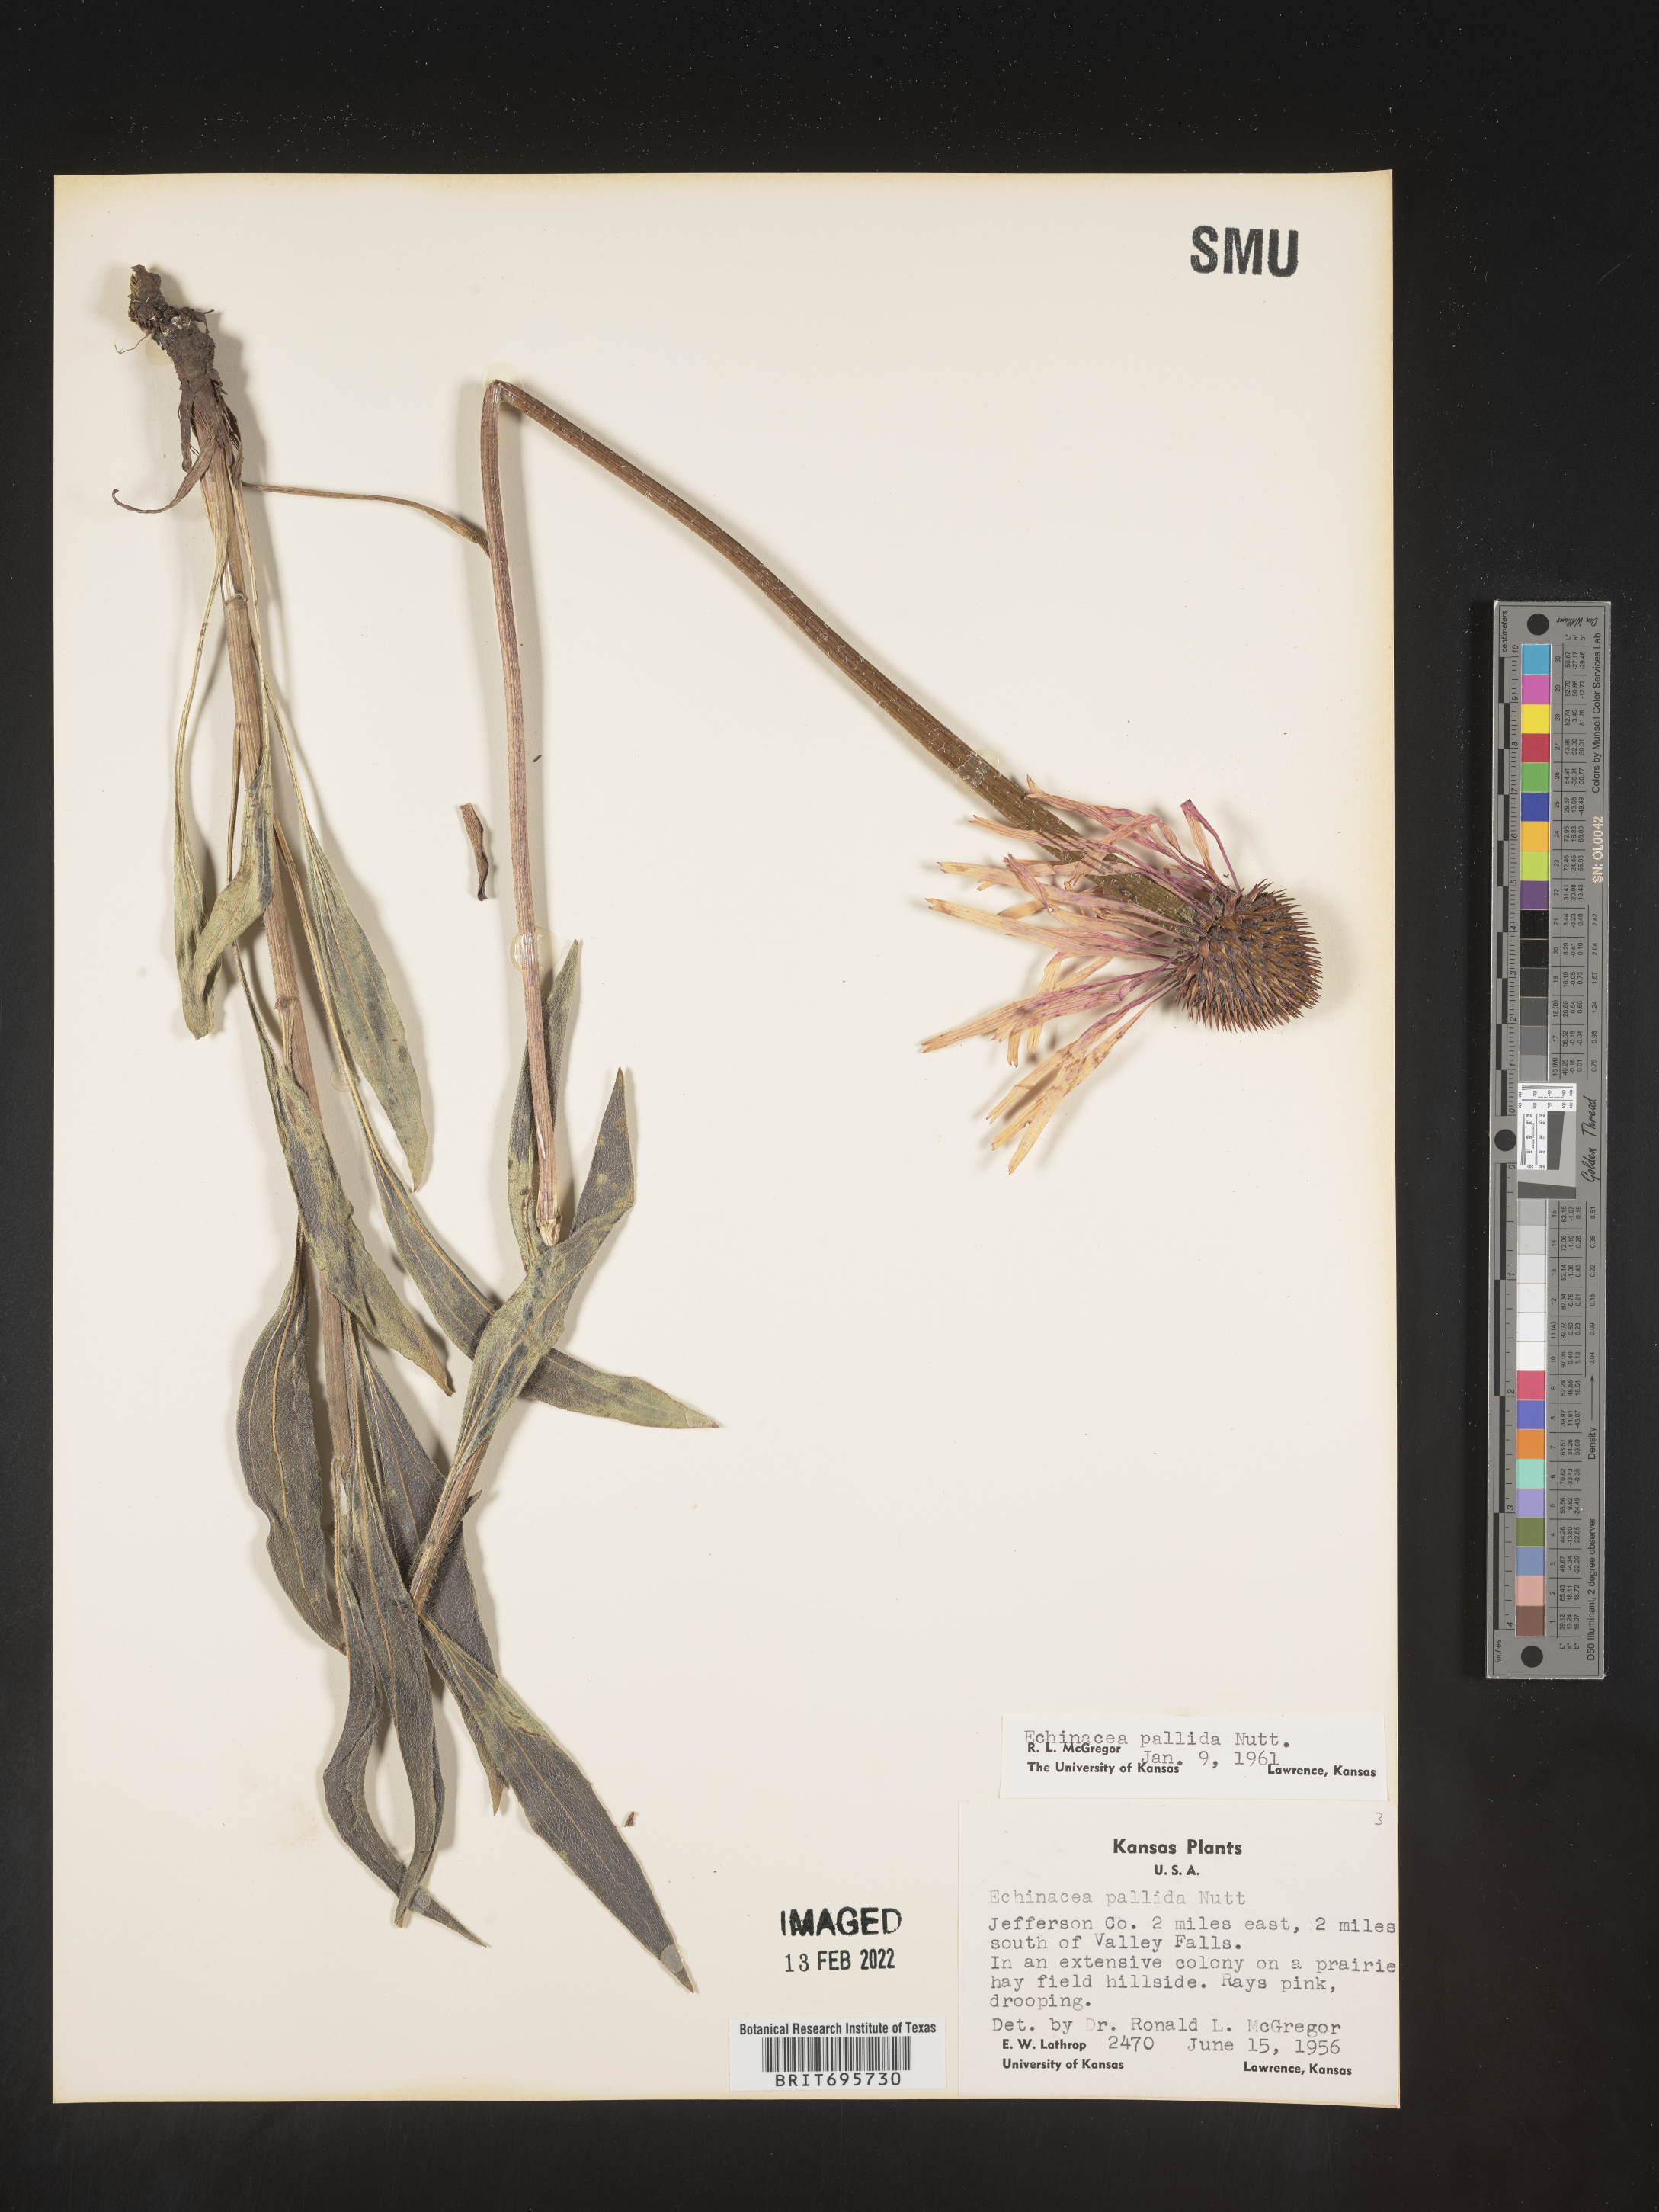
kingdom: Plantae
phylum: Tracheophyta
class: Magnoliopsida
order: Asterales
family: Asteraceae
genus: Echinacea
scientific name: Echinacea pallida
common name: Pale echinacea
